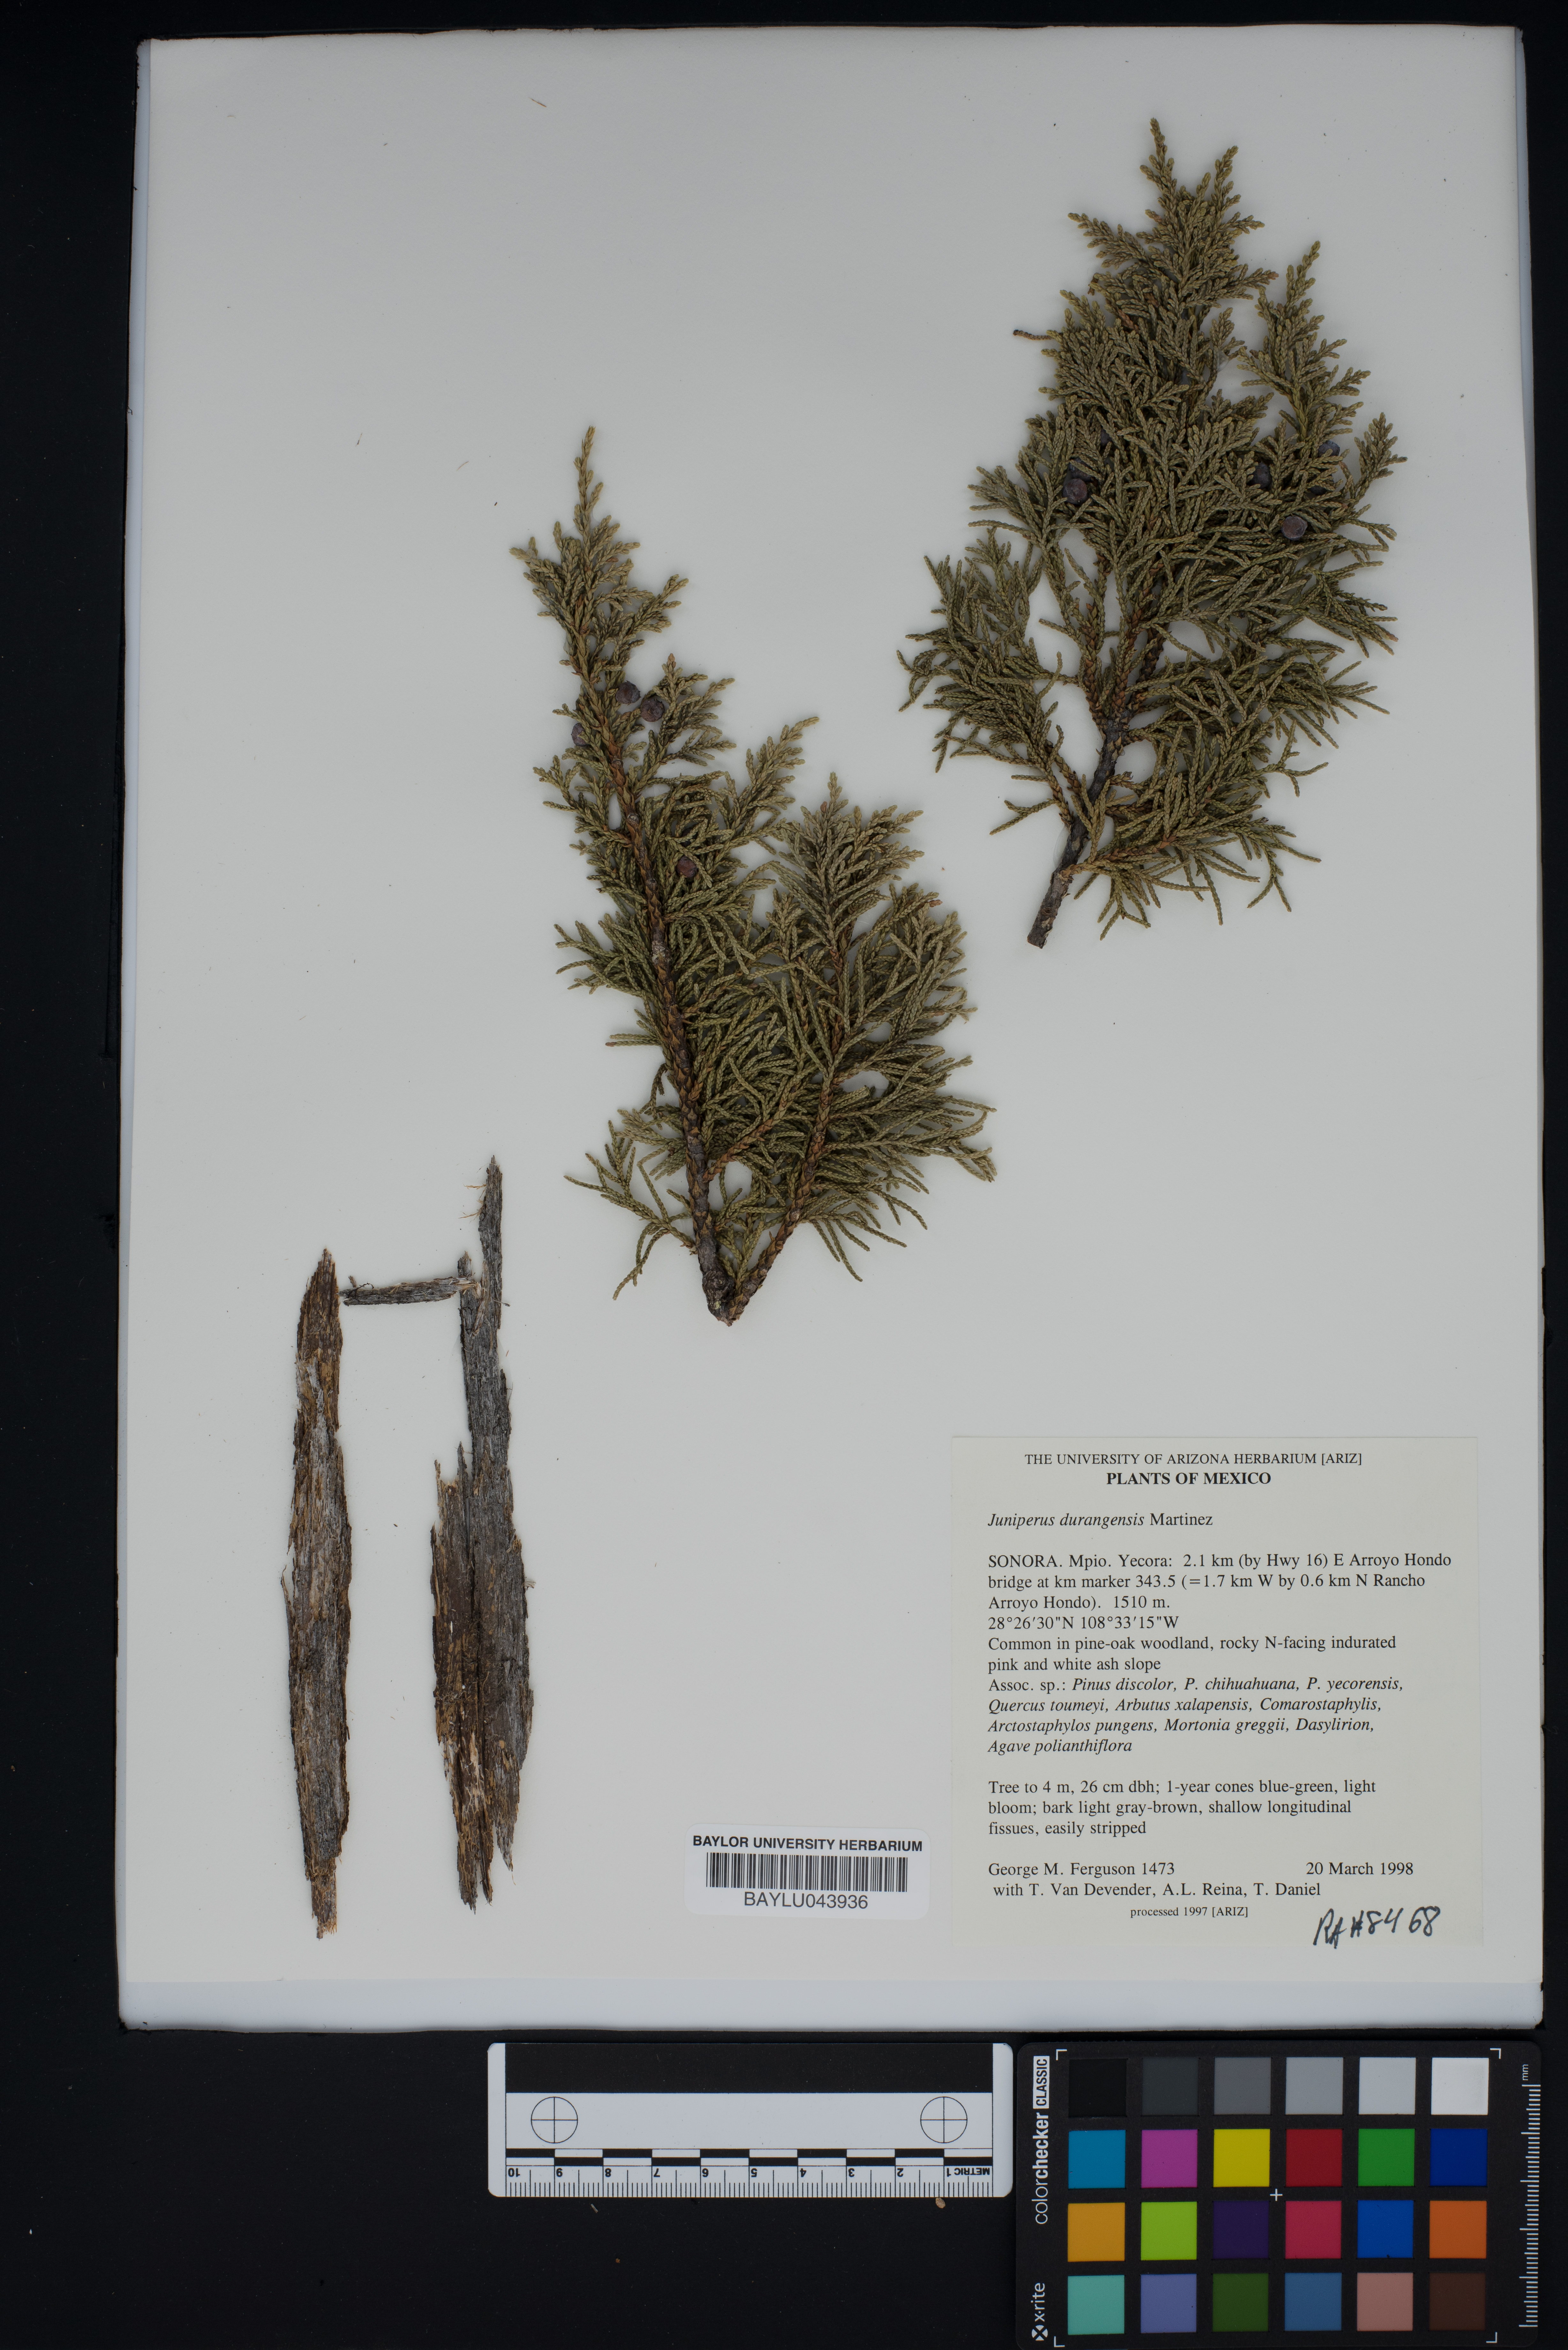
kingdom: Plantae
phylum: Tracheophyta
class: Pinopsida
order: Pinales
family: Cupressaceae
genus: Juniperus
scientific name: Juniperus durangensis
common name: Durango juniper
